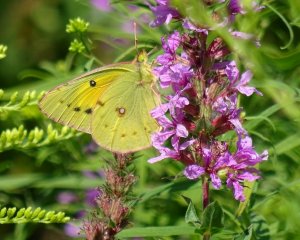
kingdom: Animalia
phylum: Arthropoda
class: Insecta
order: Lepidoptera
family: Pieridae
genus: Colias
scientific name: Colias eurytheme
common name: Orange Sulphur
